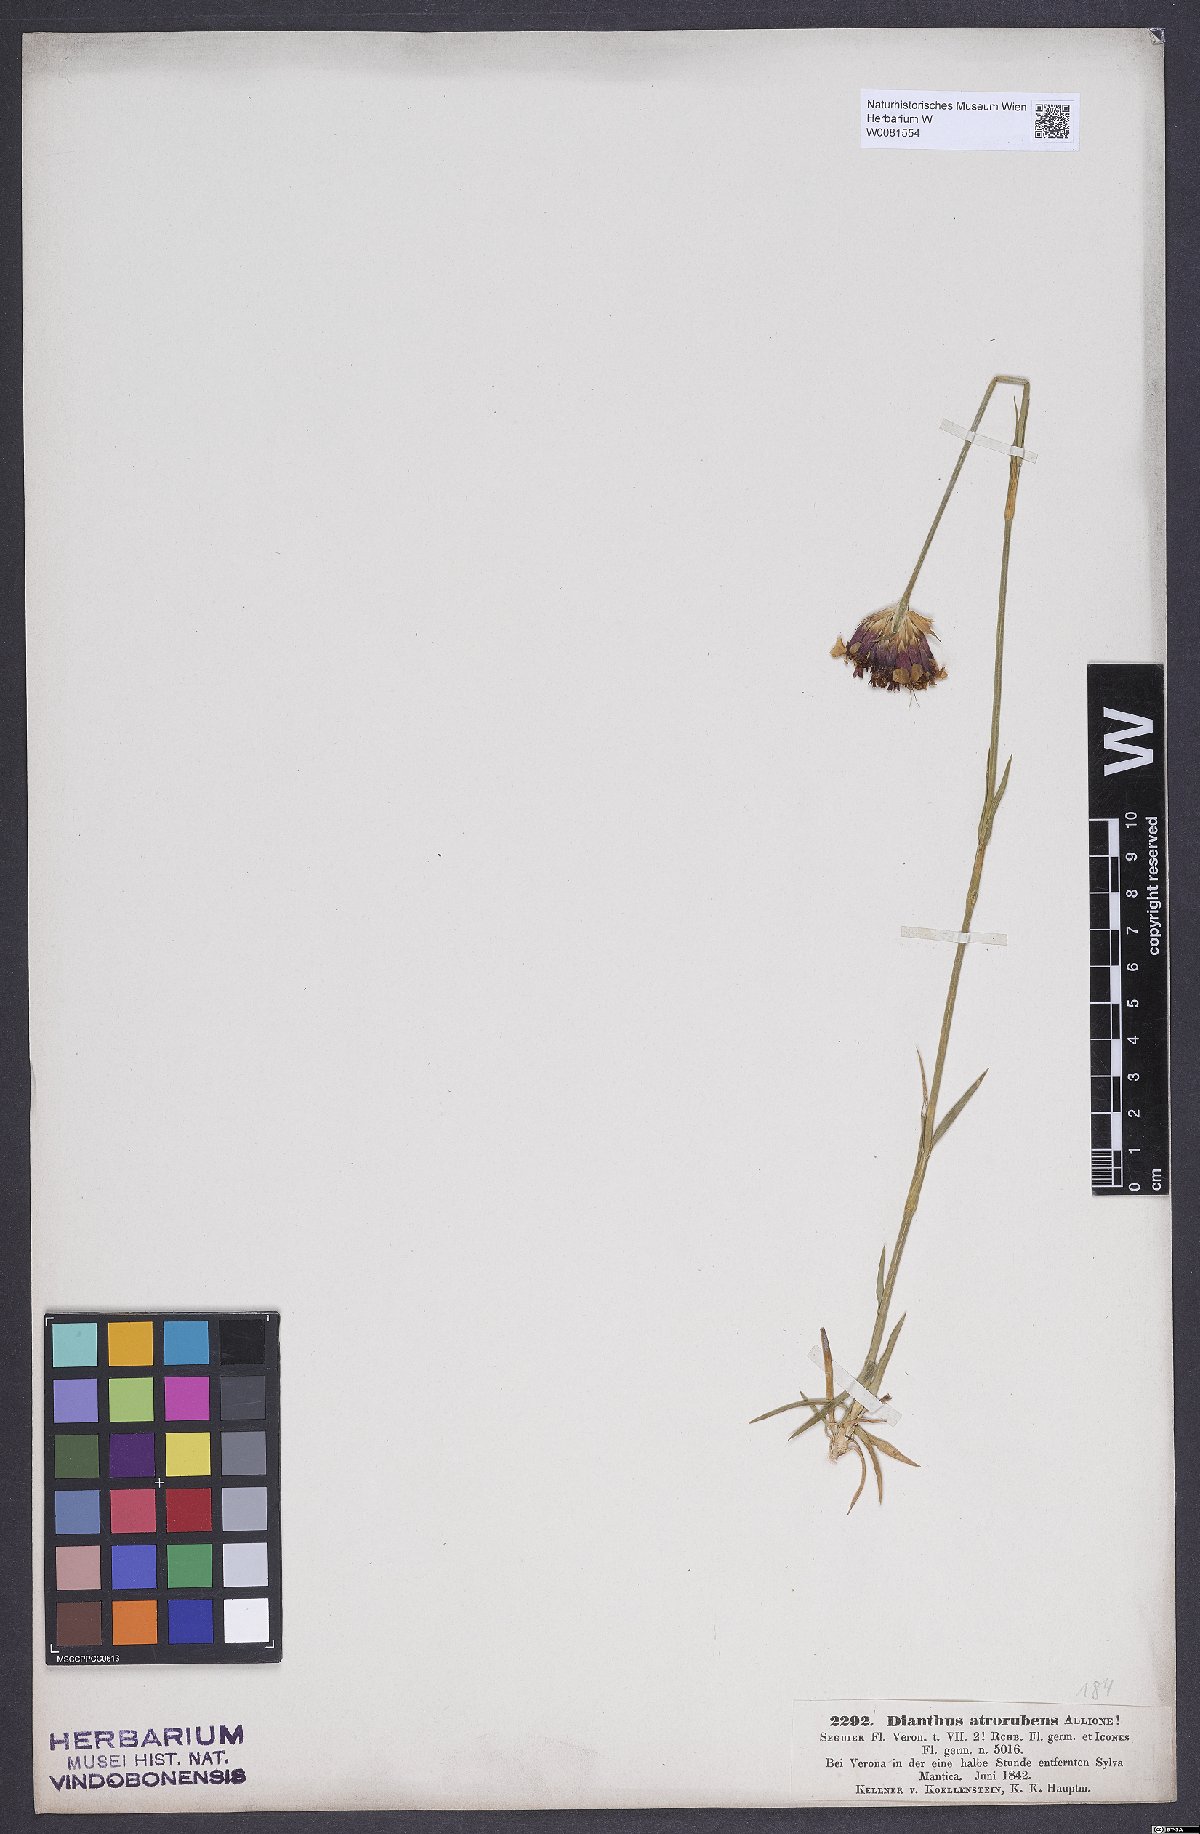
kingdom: Plantae
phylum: Tracheophyta
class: Magnoliopsida
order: Caryophyllales
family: Caryophyllaceae
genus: Dianthus
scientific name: Dianthus carthusianorum
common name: Carthusian pink
